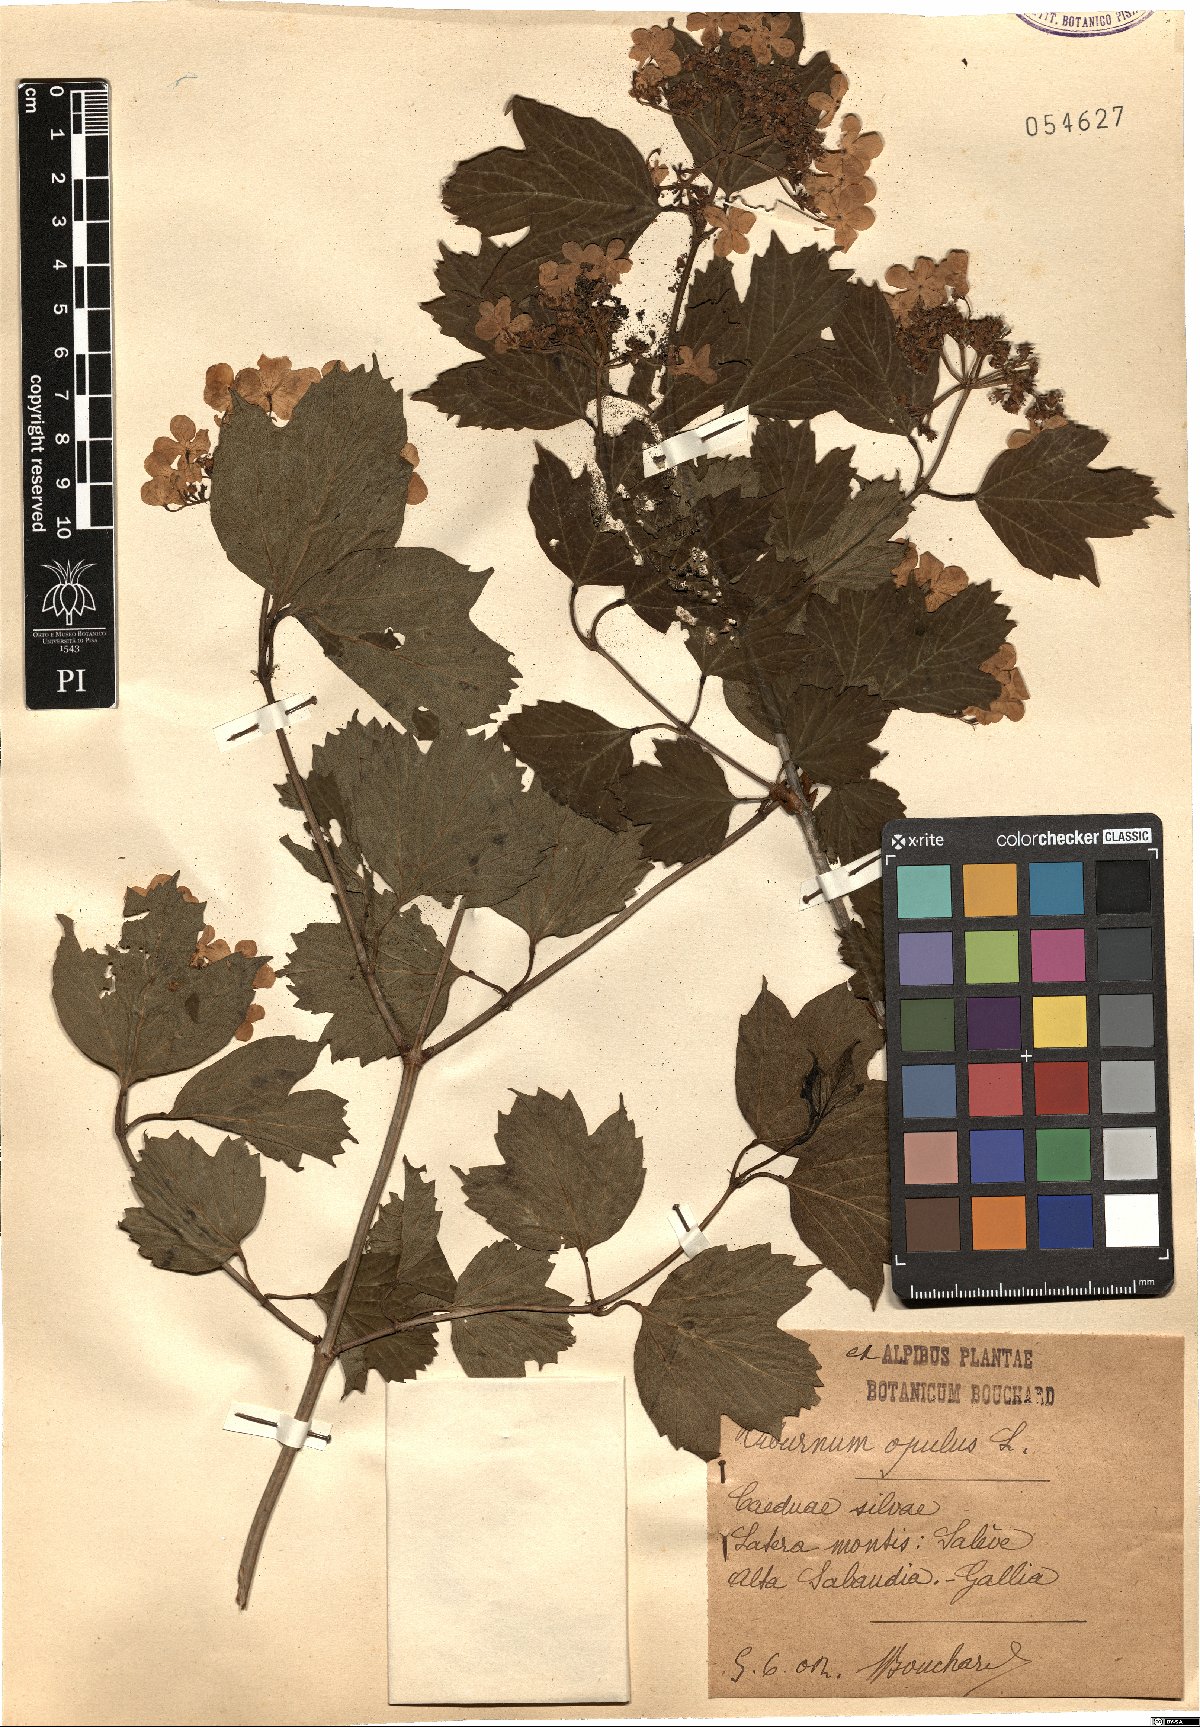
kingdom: Plantae
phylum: Tracheophyta
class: Magnoliopsida
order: Dipsacales
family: Viburnaceae
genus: Viburnum
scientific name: Viburnum opulus
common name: Guelder-rose
